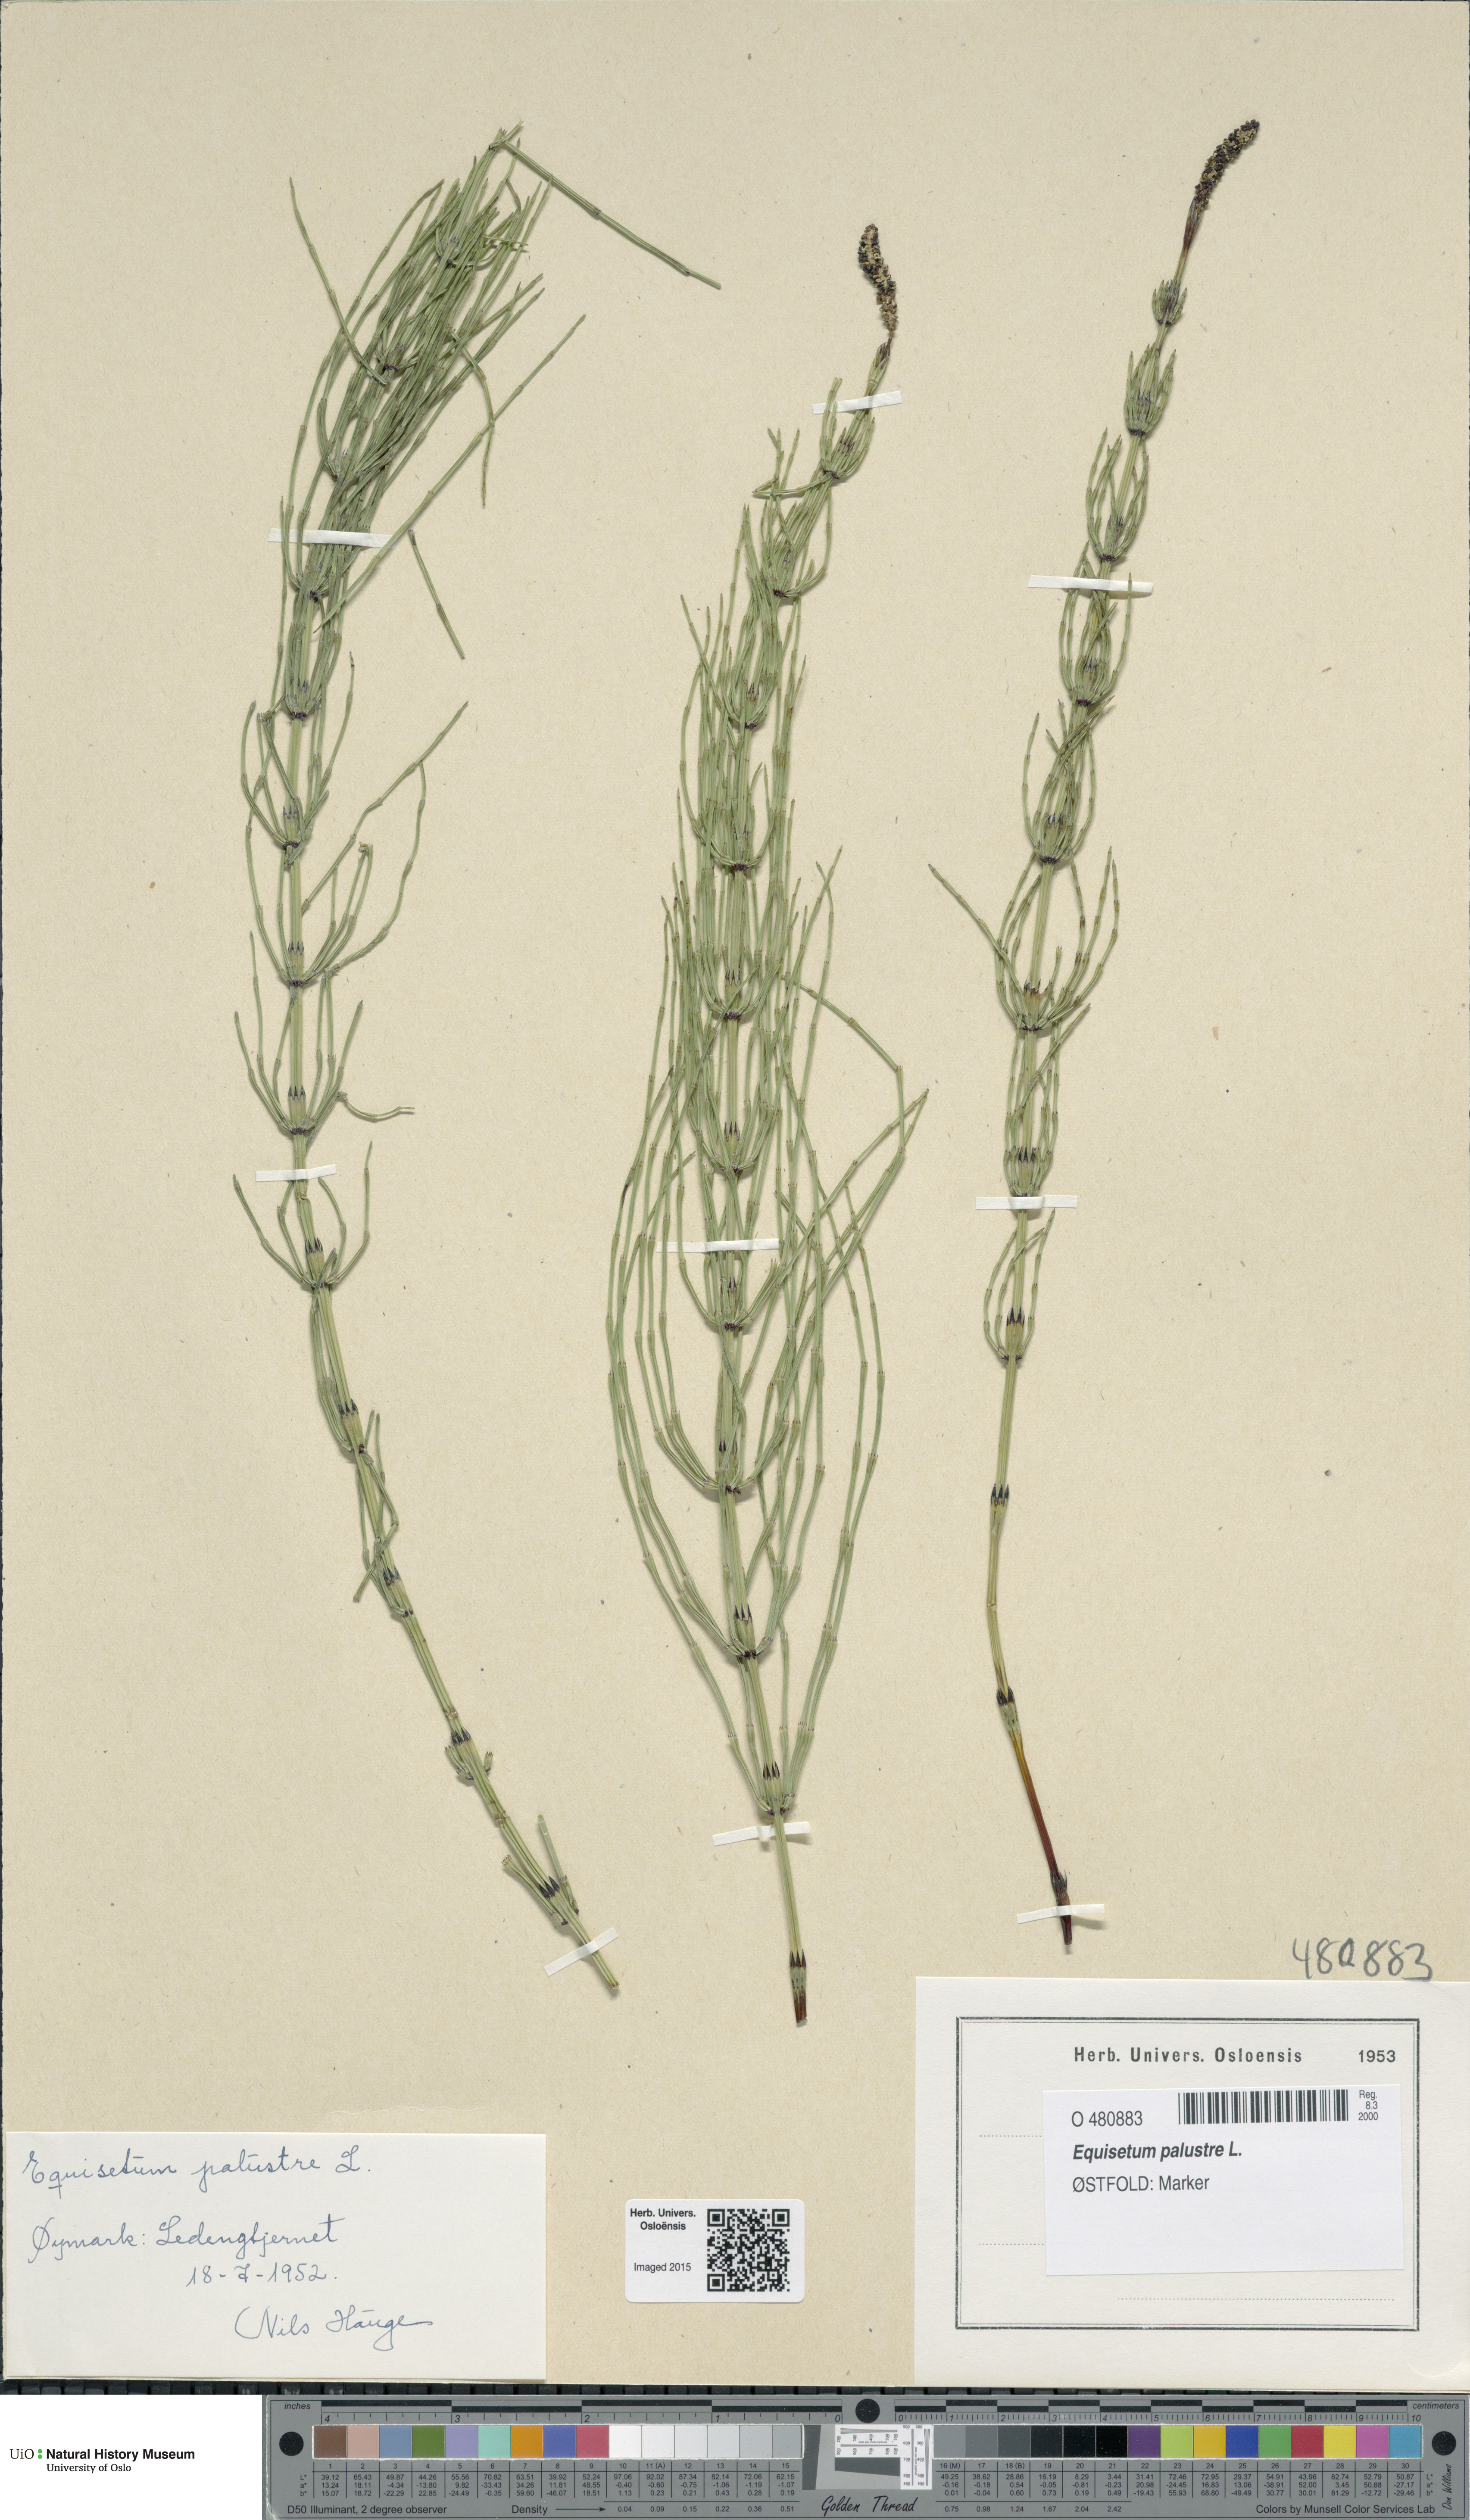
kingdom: Plantae
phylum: Tracheophyta
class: Polypodiopsida
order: Equisetales
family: Equisetaceae
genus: Equisetum
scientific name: Equisetum palustre
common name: Marsh horsetail
